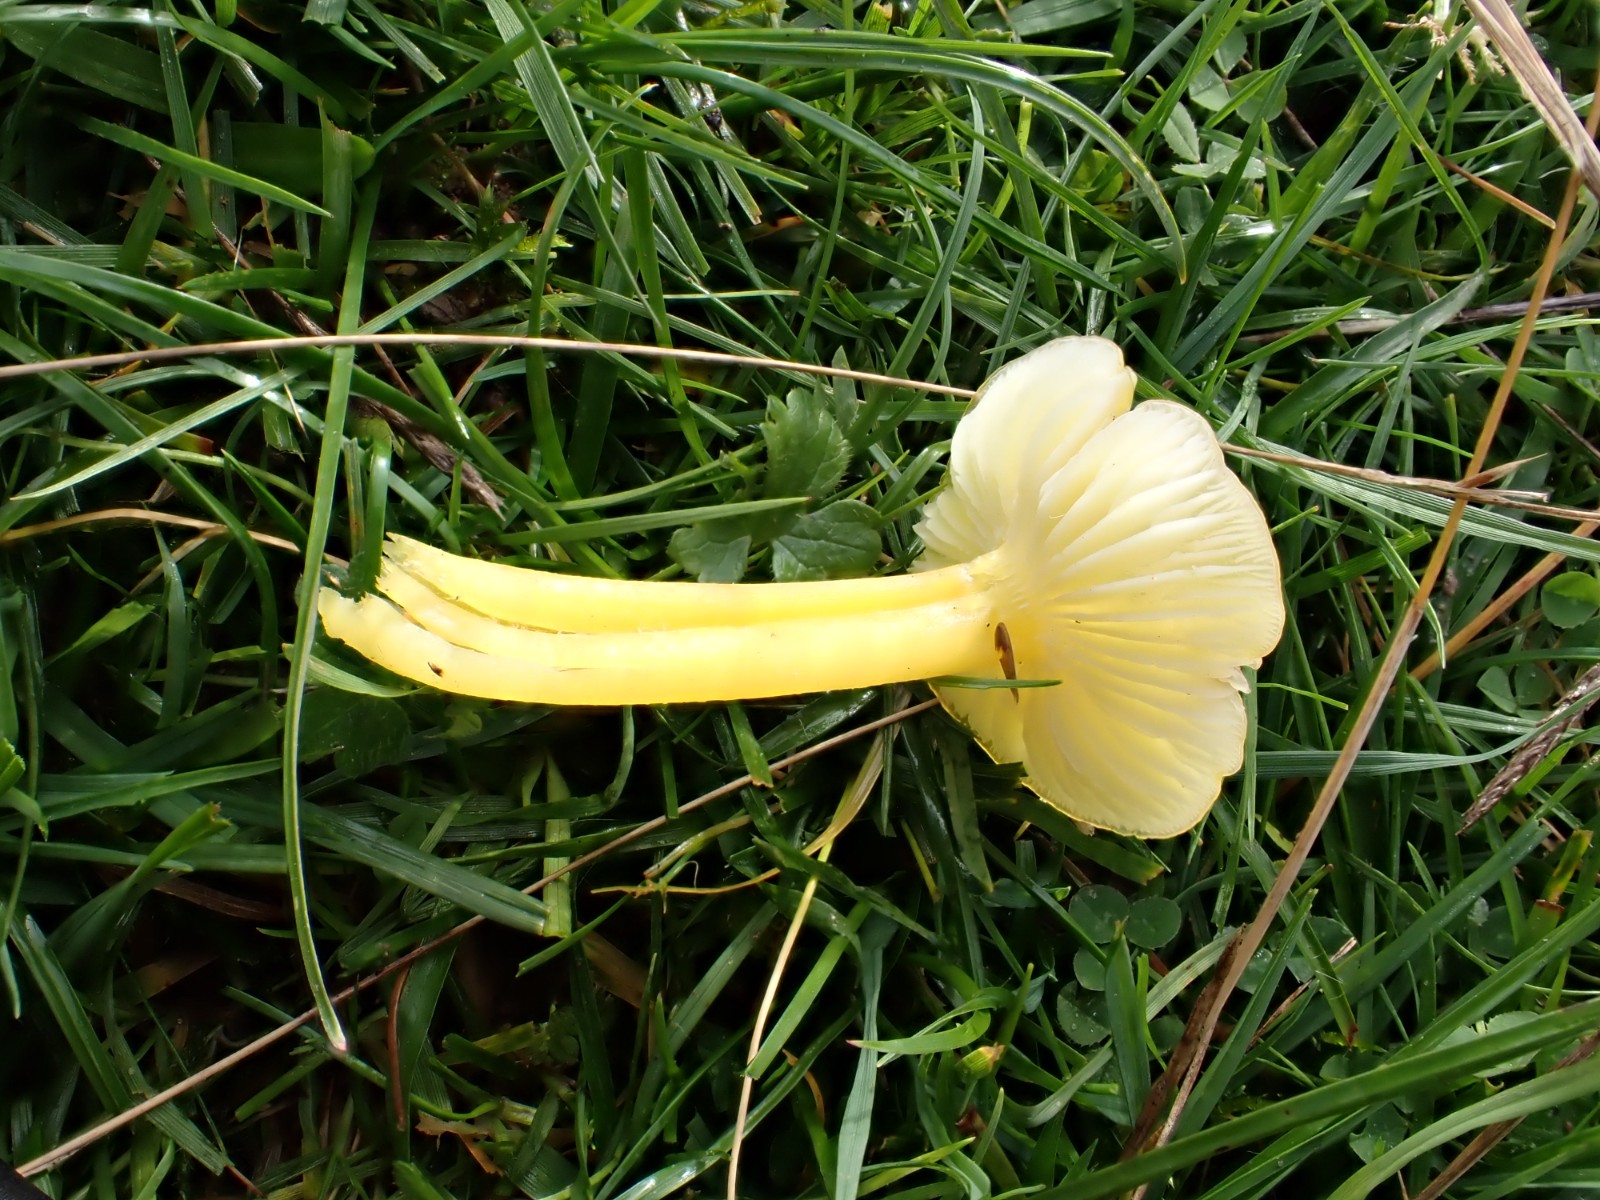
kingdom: Fungi
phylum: Basidiomycota
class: Agaricomycetes
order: Agaricales
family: Hygrophoraceae
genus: Hygrocybe
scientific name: Hygrocybe ceracea
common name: voksgul vokshat
